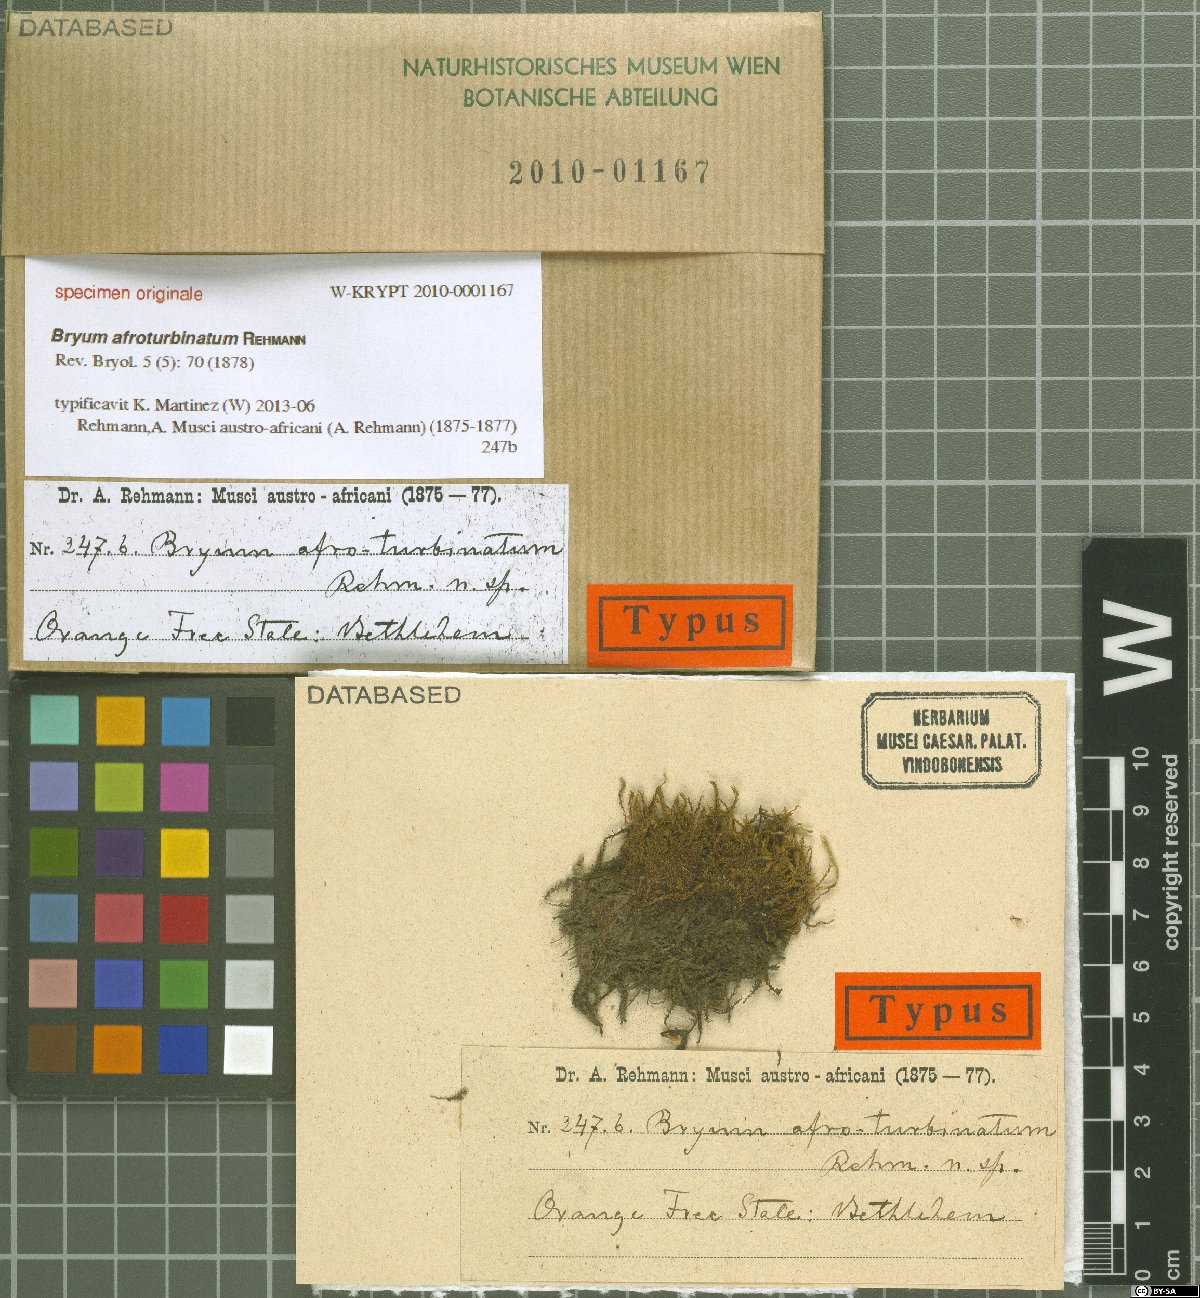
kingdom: Plantae
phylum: Bryophyta
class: Bryopsida
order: Bryales
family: Bryaceae
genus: Bryum
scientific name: Bryum
